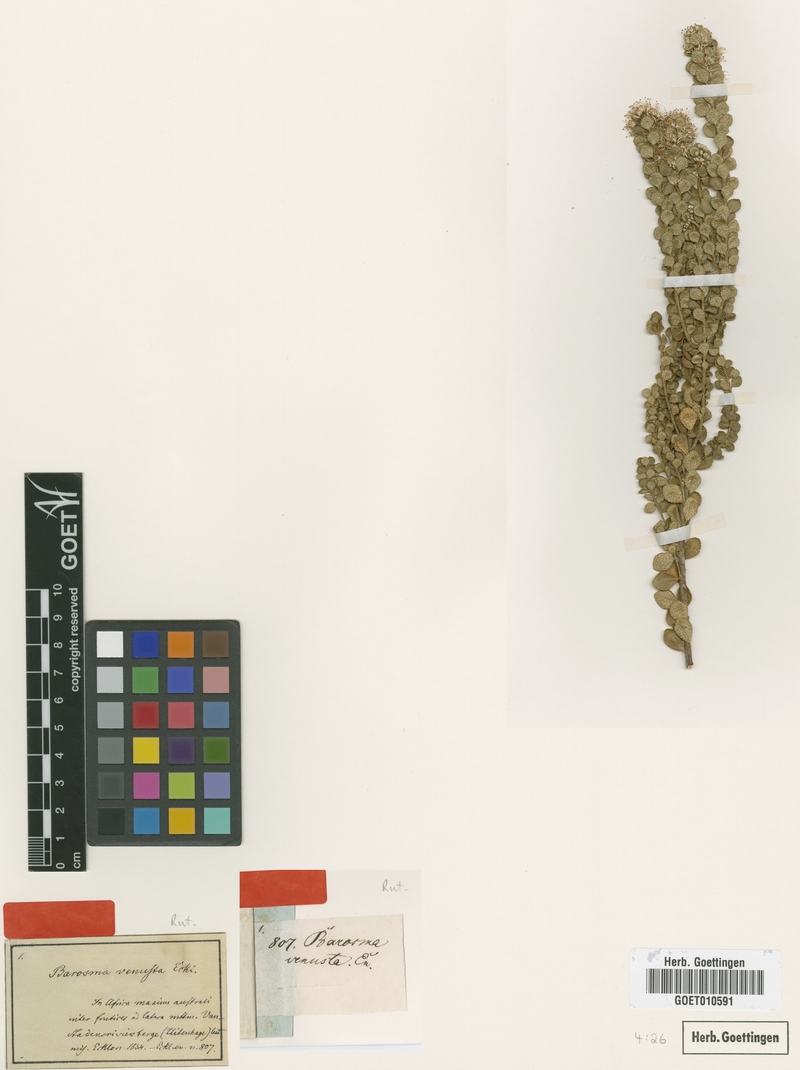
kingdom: Plantae
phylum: Tracheophyta
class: Magnoliopsida
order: Sapindales
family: Rutaceae
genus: Agathosma
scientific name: Agathosma venusta
